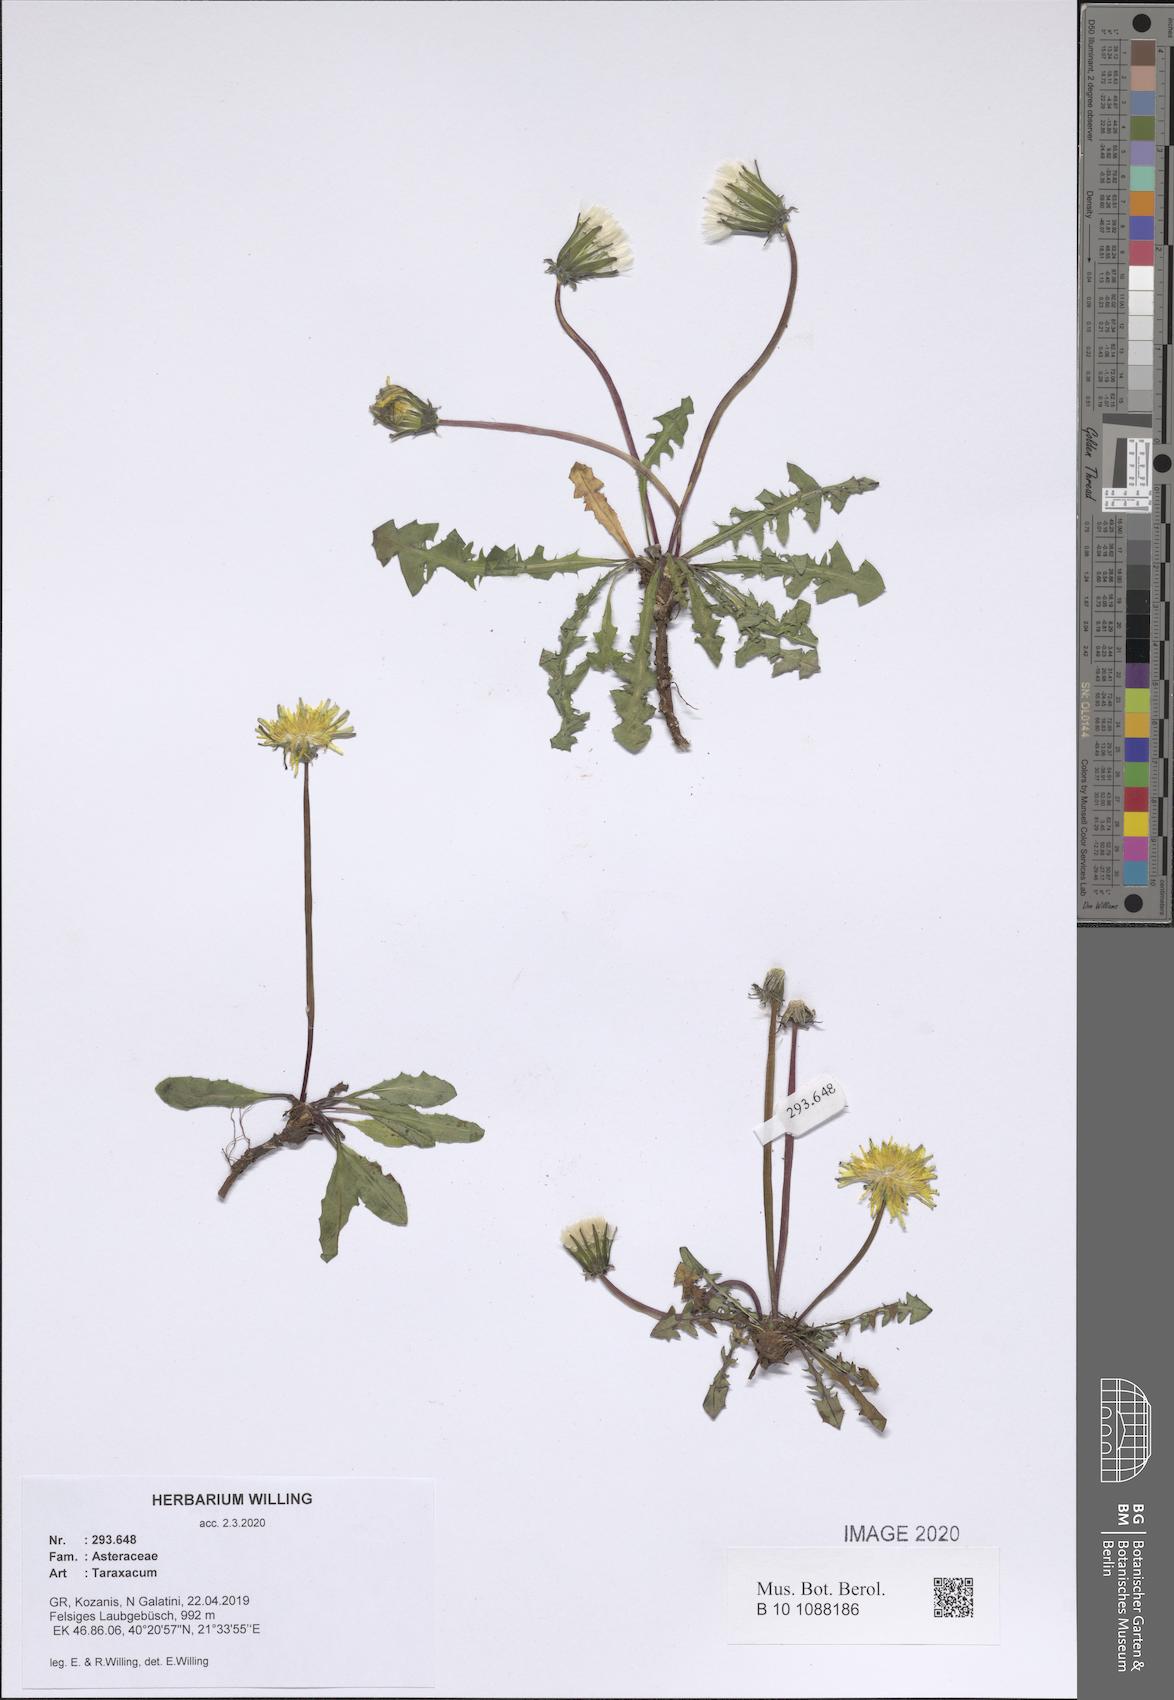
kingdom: Plantae
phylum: Tracheophyta
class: Magnoliopsida
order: Asterales
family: Asteraceae
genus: Taraxacum
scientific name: Taraxacum
